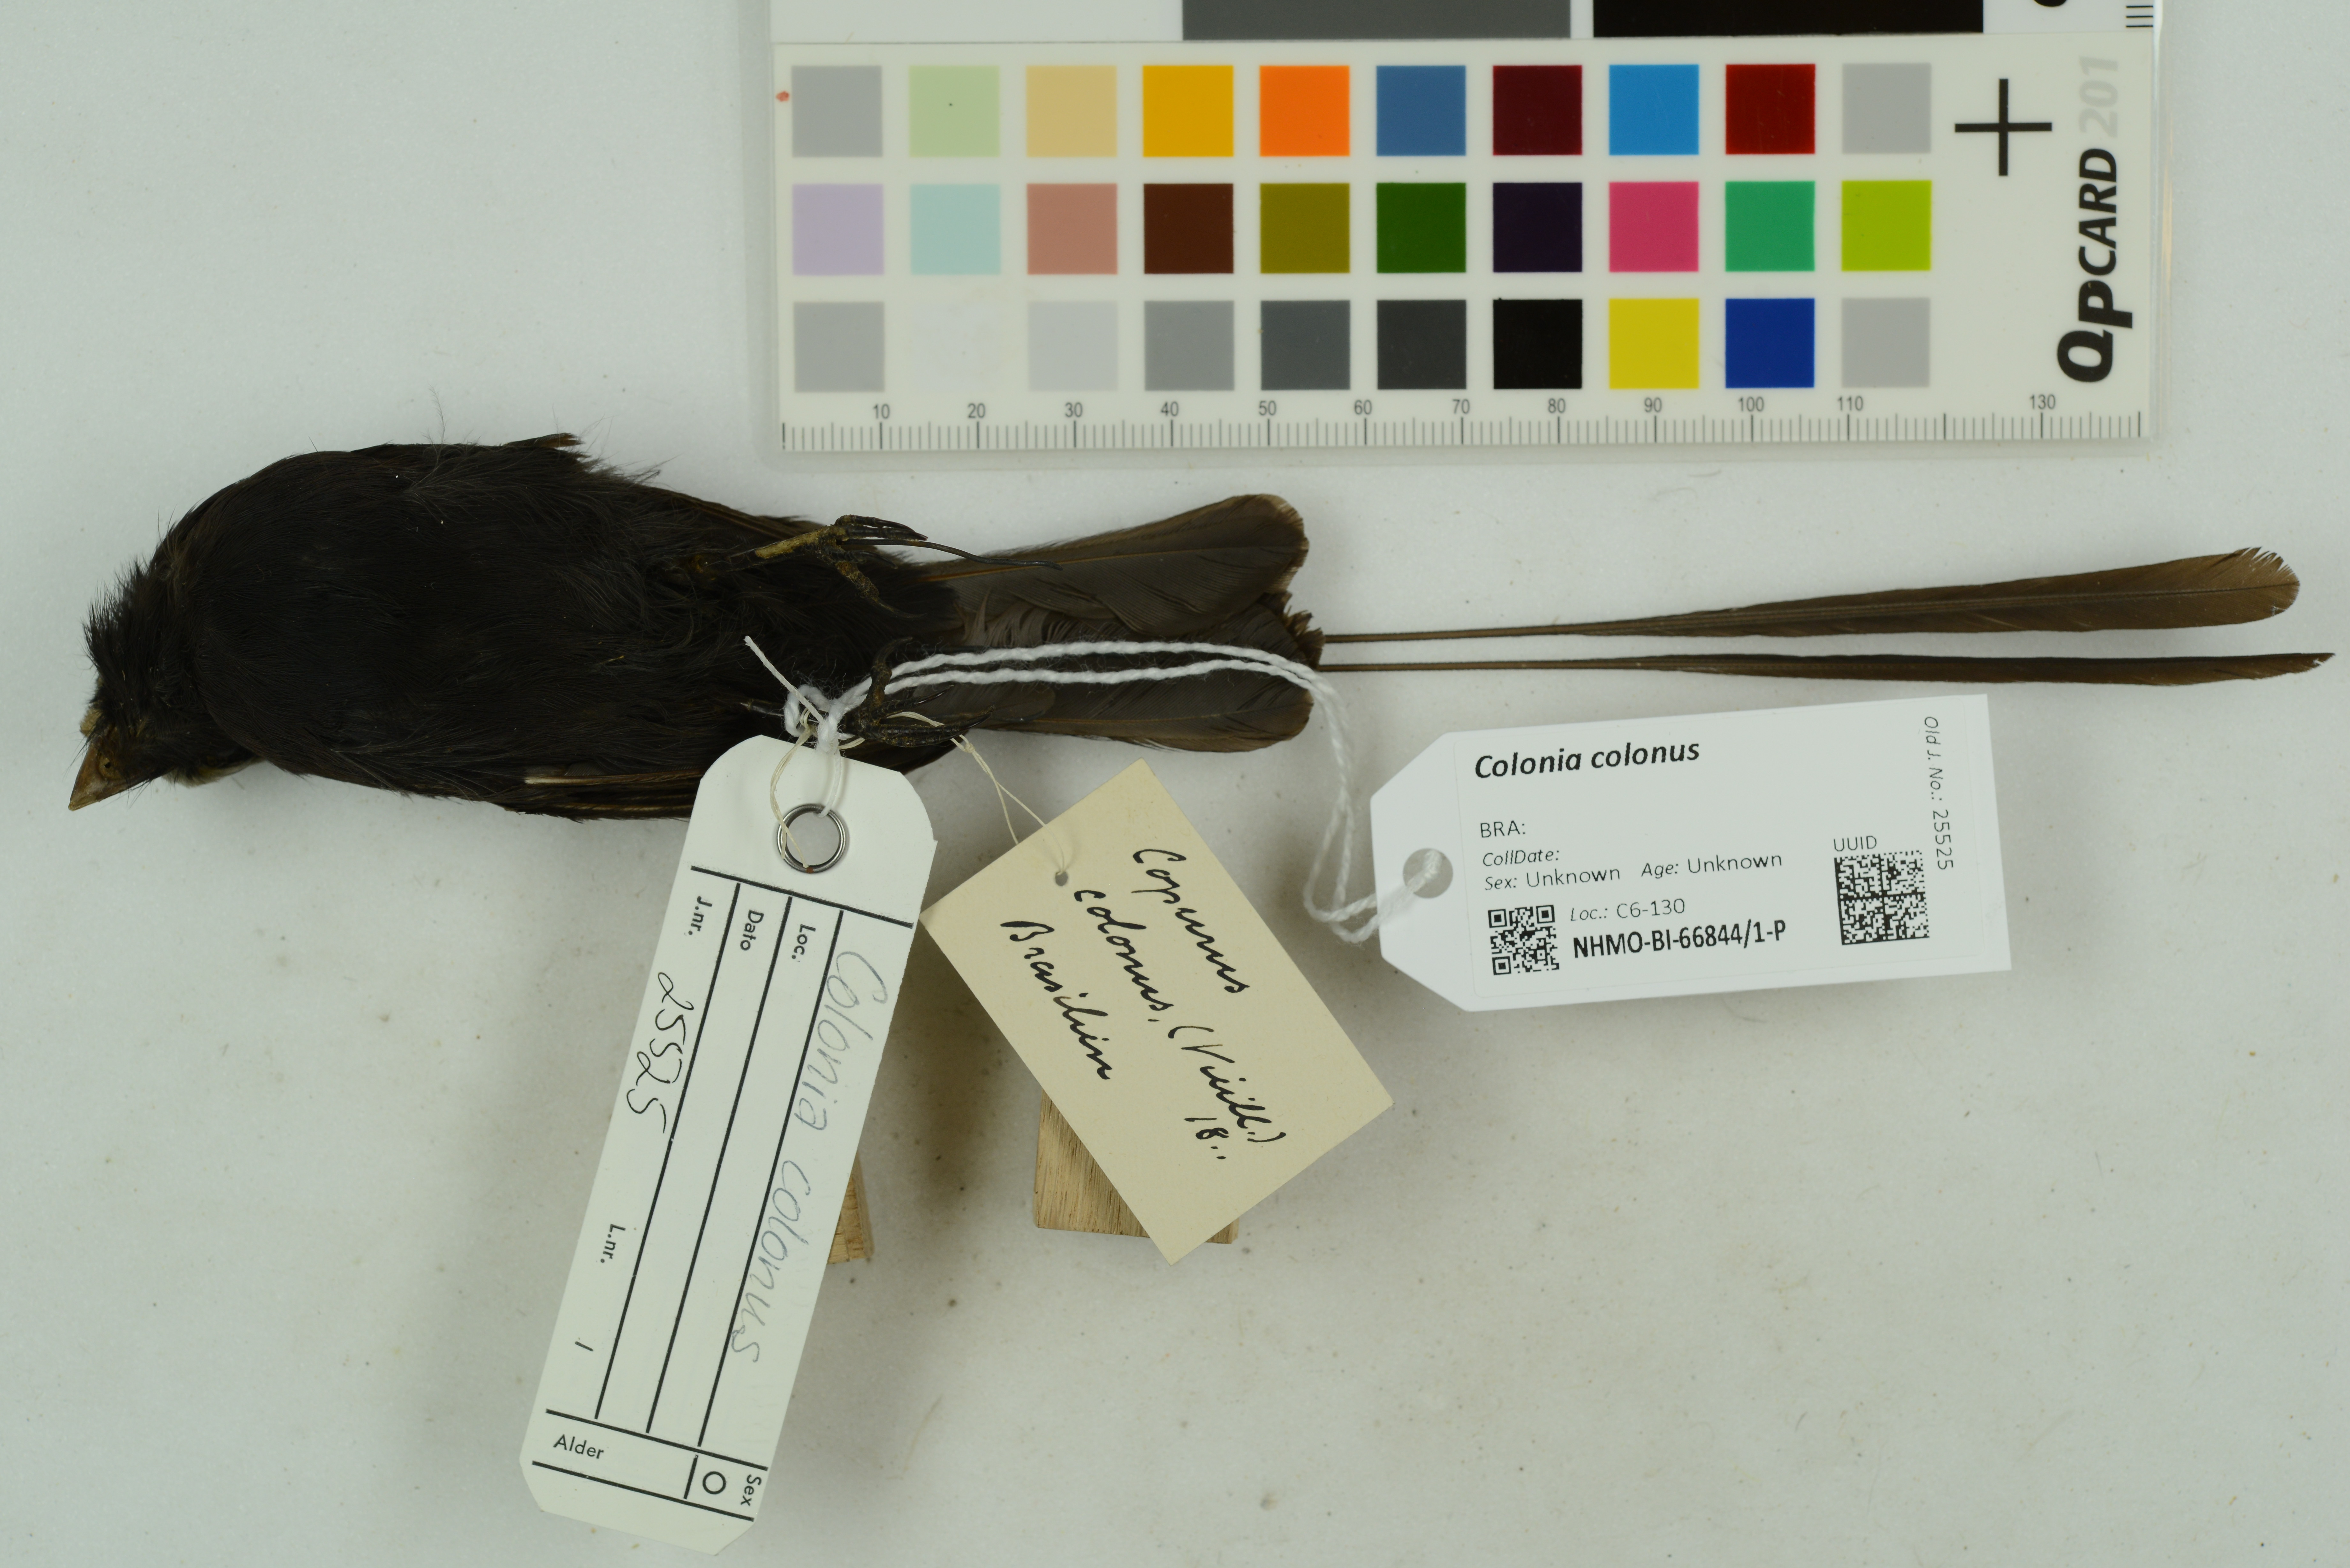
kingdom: Animalia
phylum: Chordata
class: Aves
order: Passeriformes
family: Tyrannidae
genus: Colonia
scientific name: Colonia colonus
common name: Long-tailed tyrant
